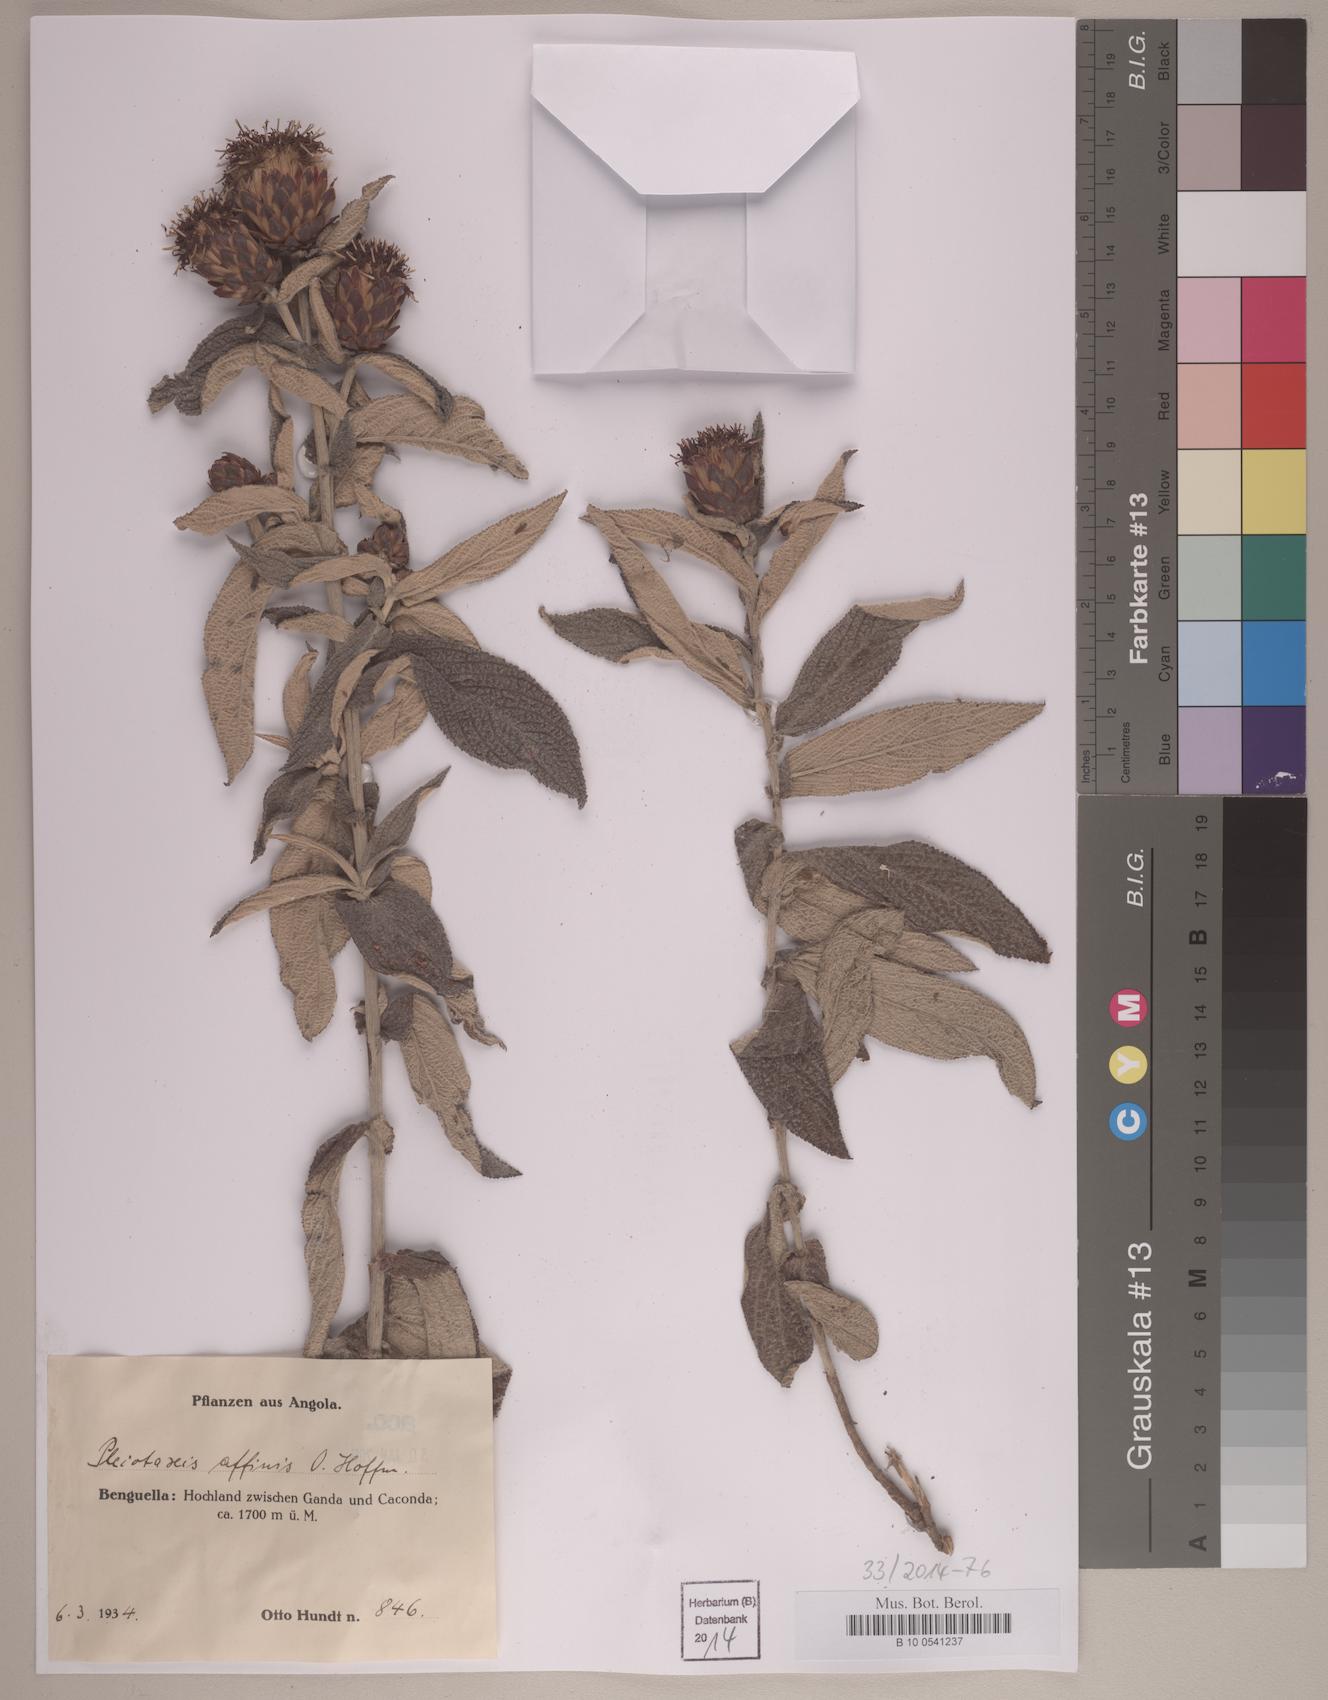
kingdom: Plantae
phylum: Tracheophyta
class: Magnoliopsida
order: Asterales
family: Asteraceae
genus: Pleiotaxis
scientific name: Pleiotaxis affinis
